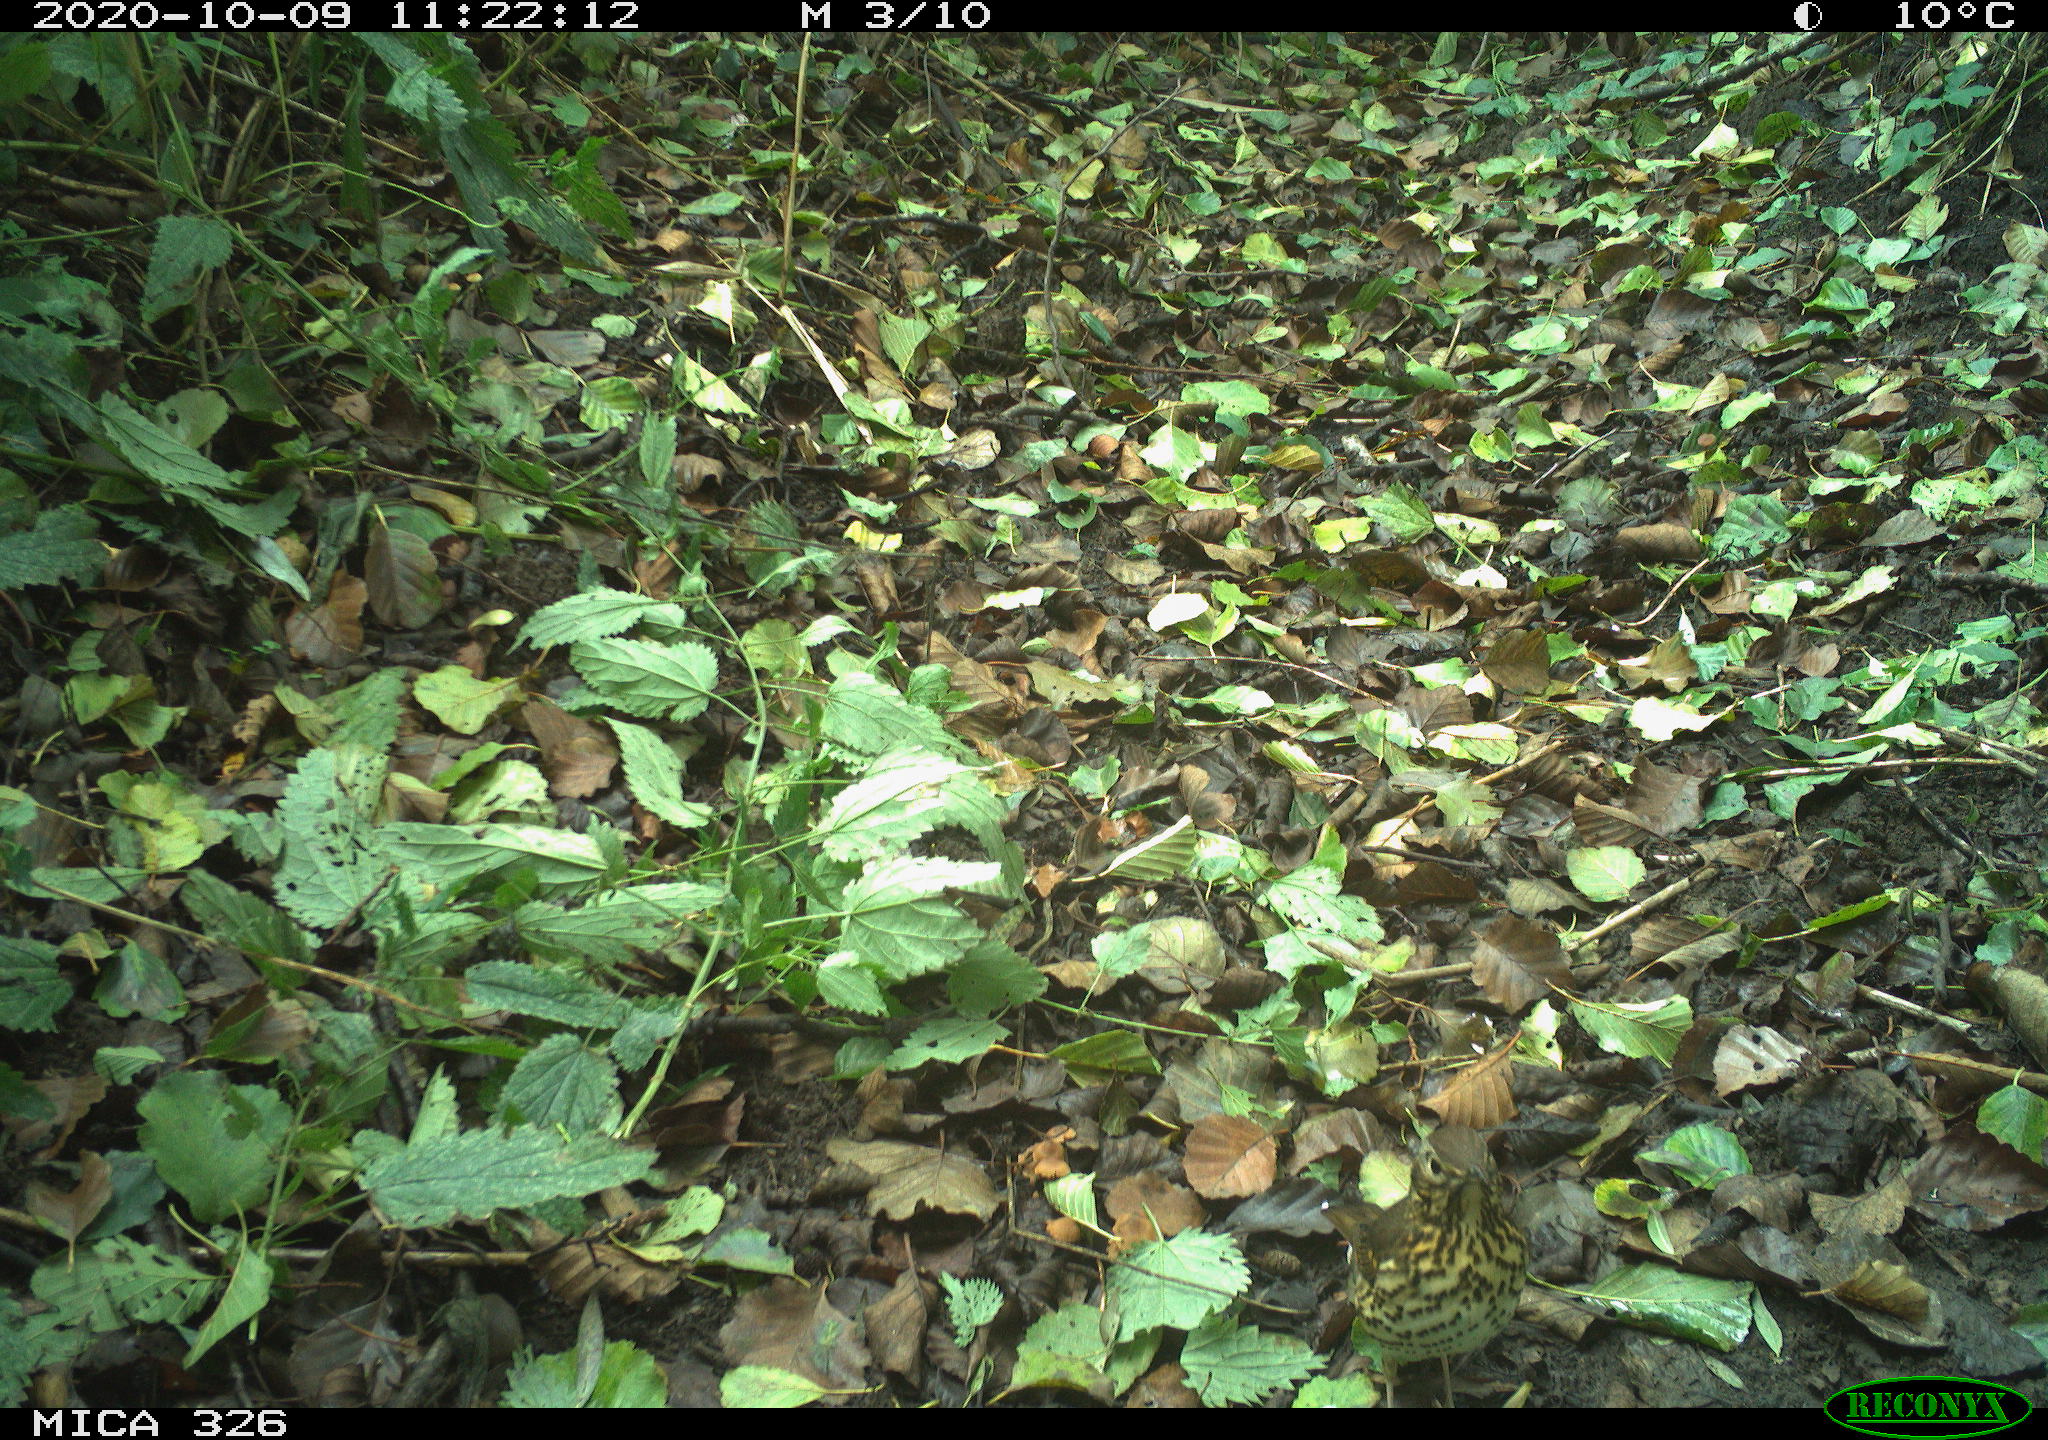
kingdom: Animalia
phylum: Chordata
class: Aves
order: Passeriformes
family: Turdidae
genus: Turdus
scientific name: Turdus philomelos
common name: Song thrush
